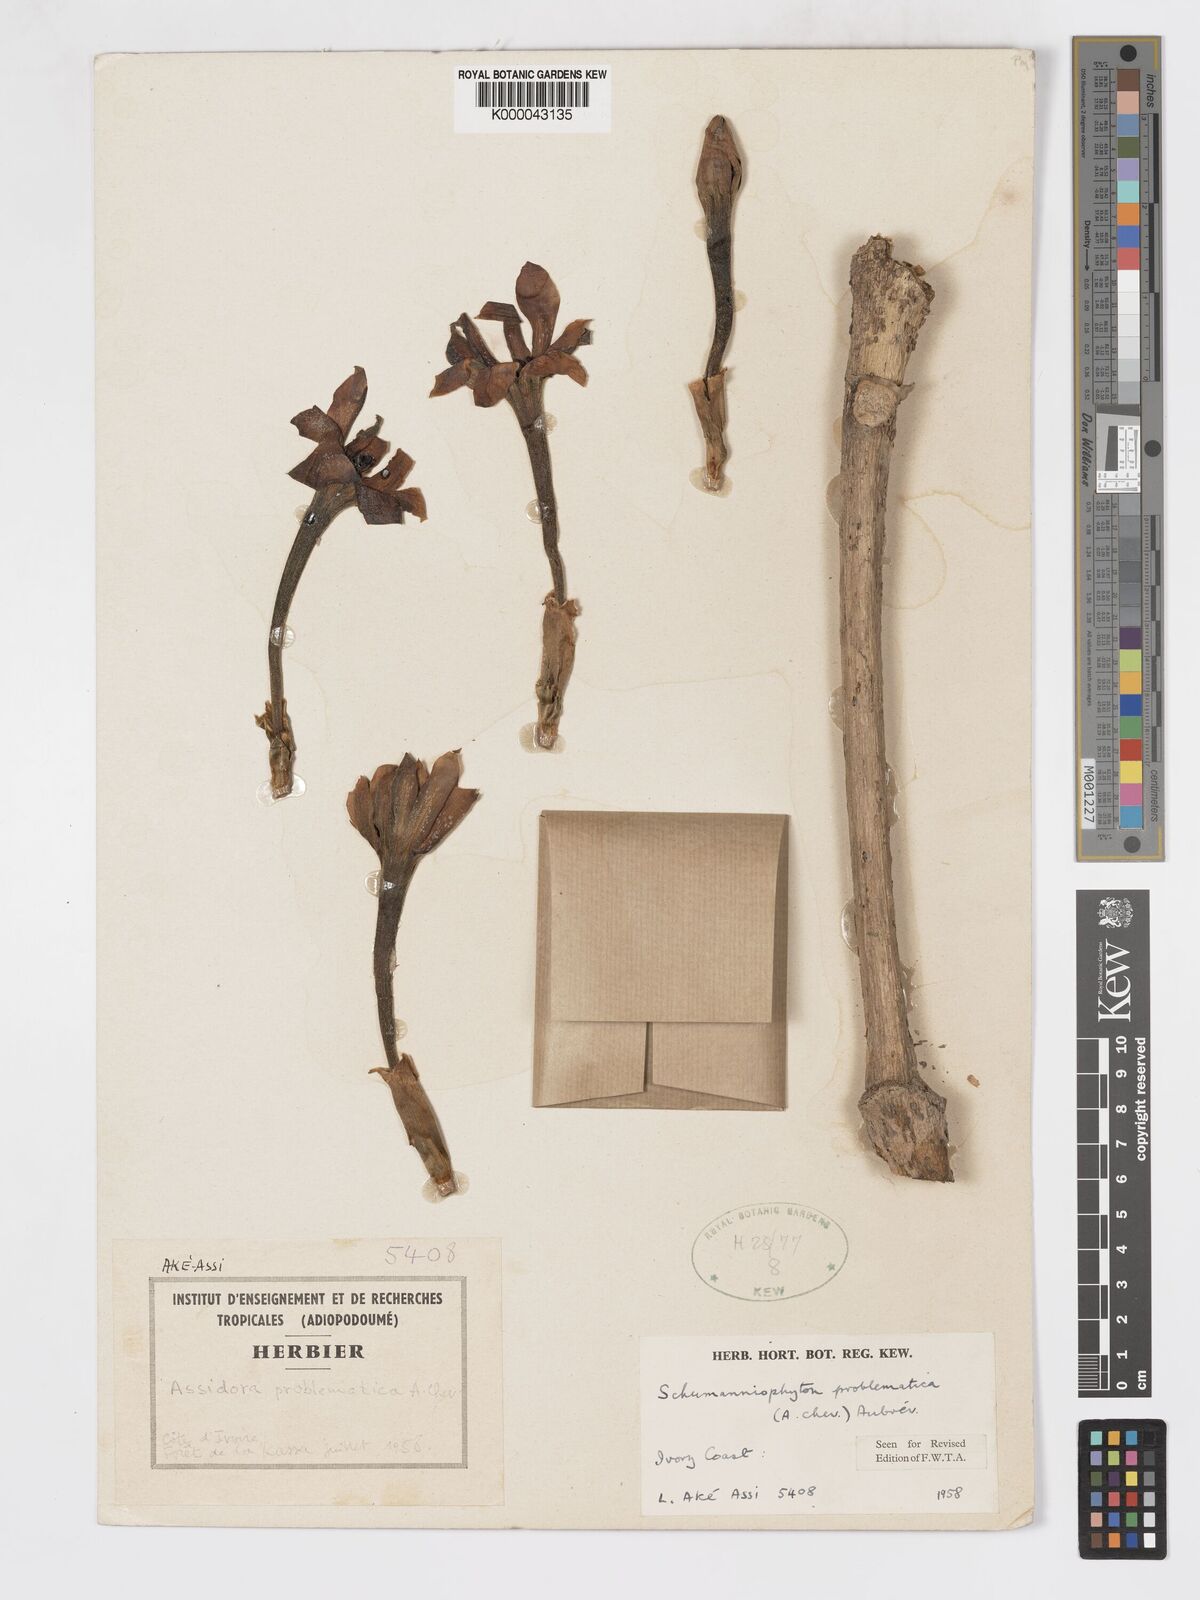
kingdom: Plantae
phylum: Tracheophyta
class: Magnoliopsida
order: Gentianales
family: Rubiaceae
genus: Schumanniophyton
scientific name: Schumanniophyton
